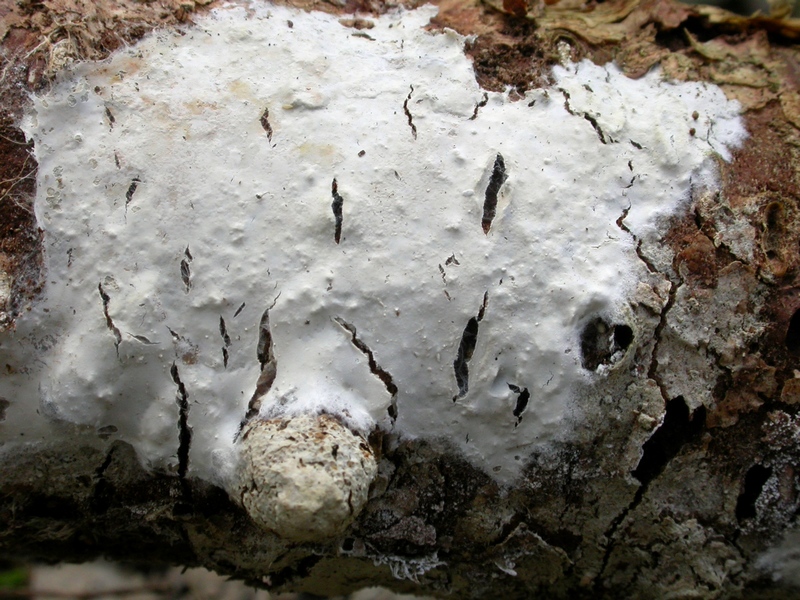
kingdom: Fungi
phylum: Basidiomycota
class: Agaricomycetes
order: Atheliales
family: Atheliaceae
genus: Leptosporomyces
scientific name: Leptosporomyces fuscostratus
